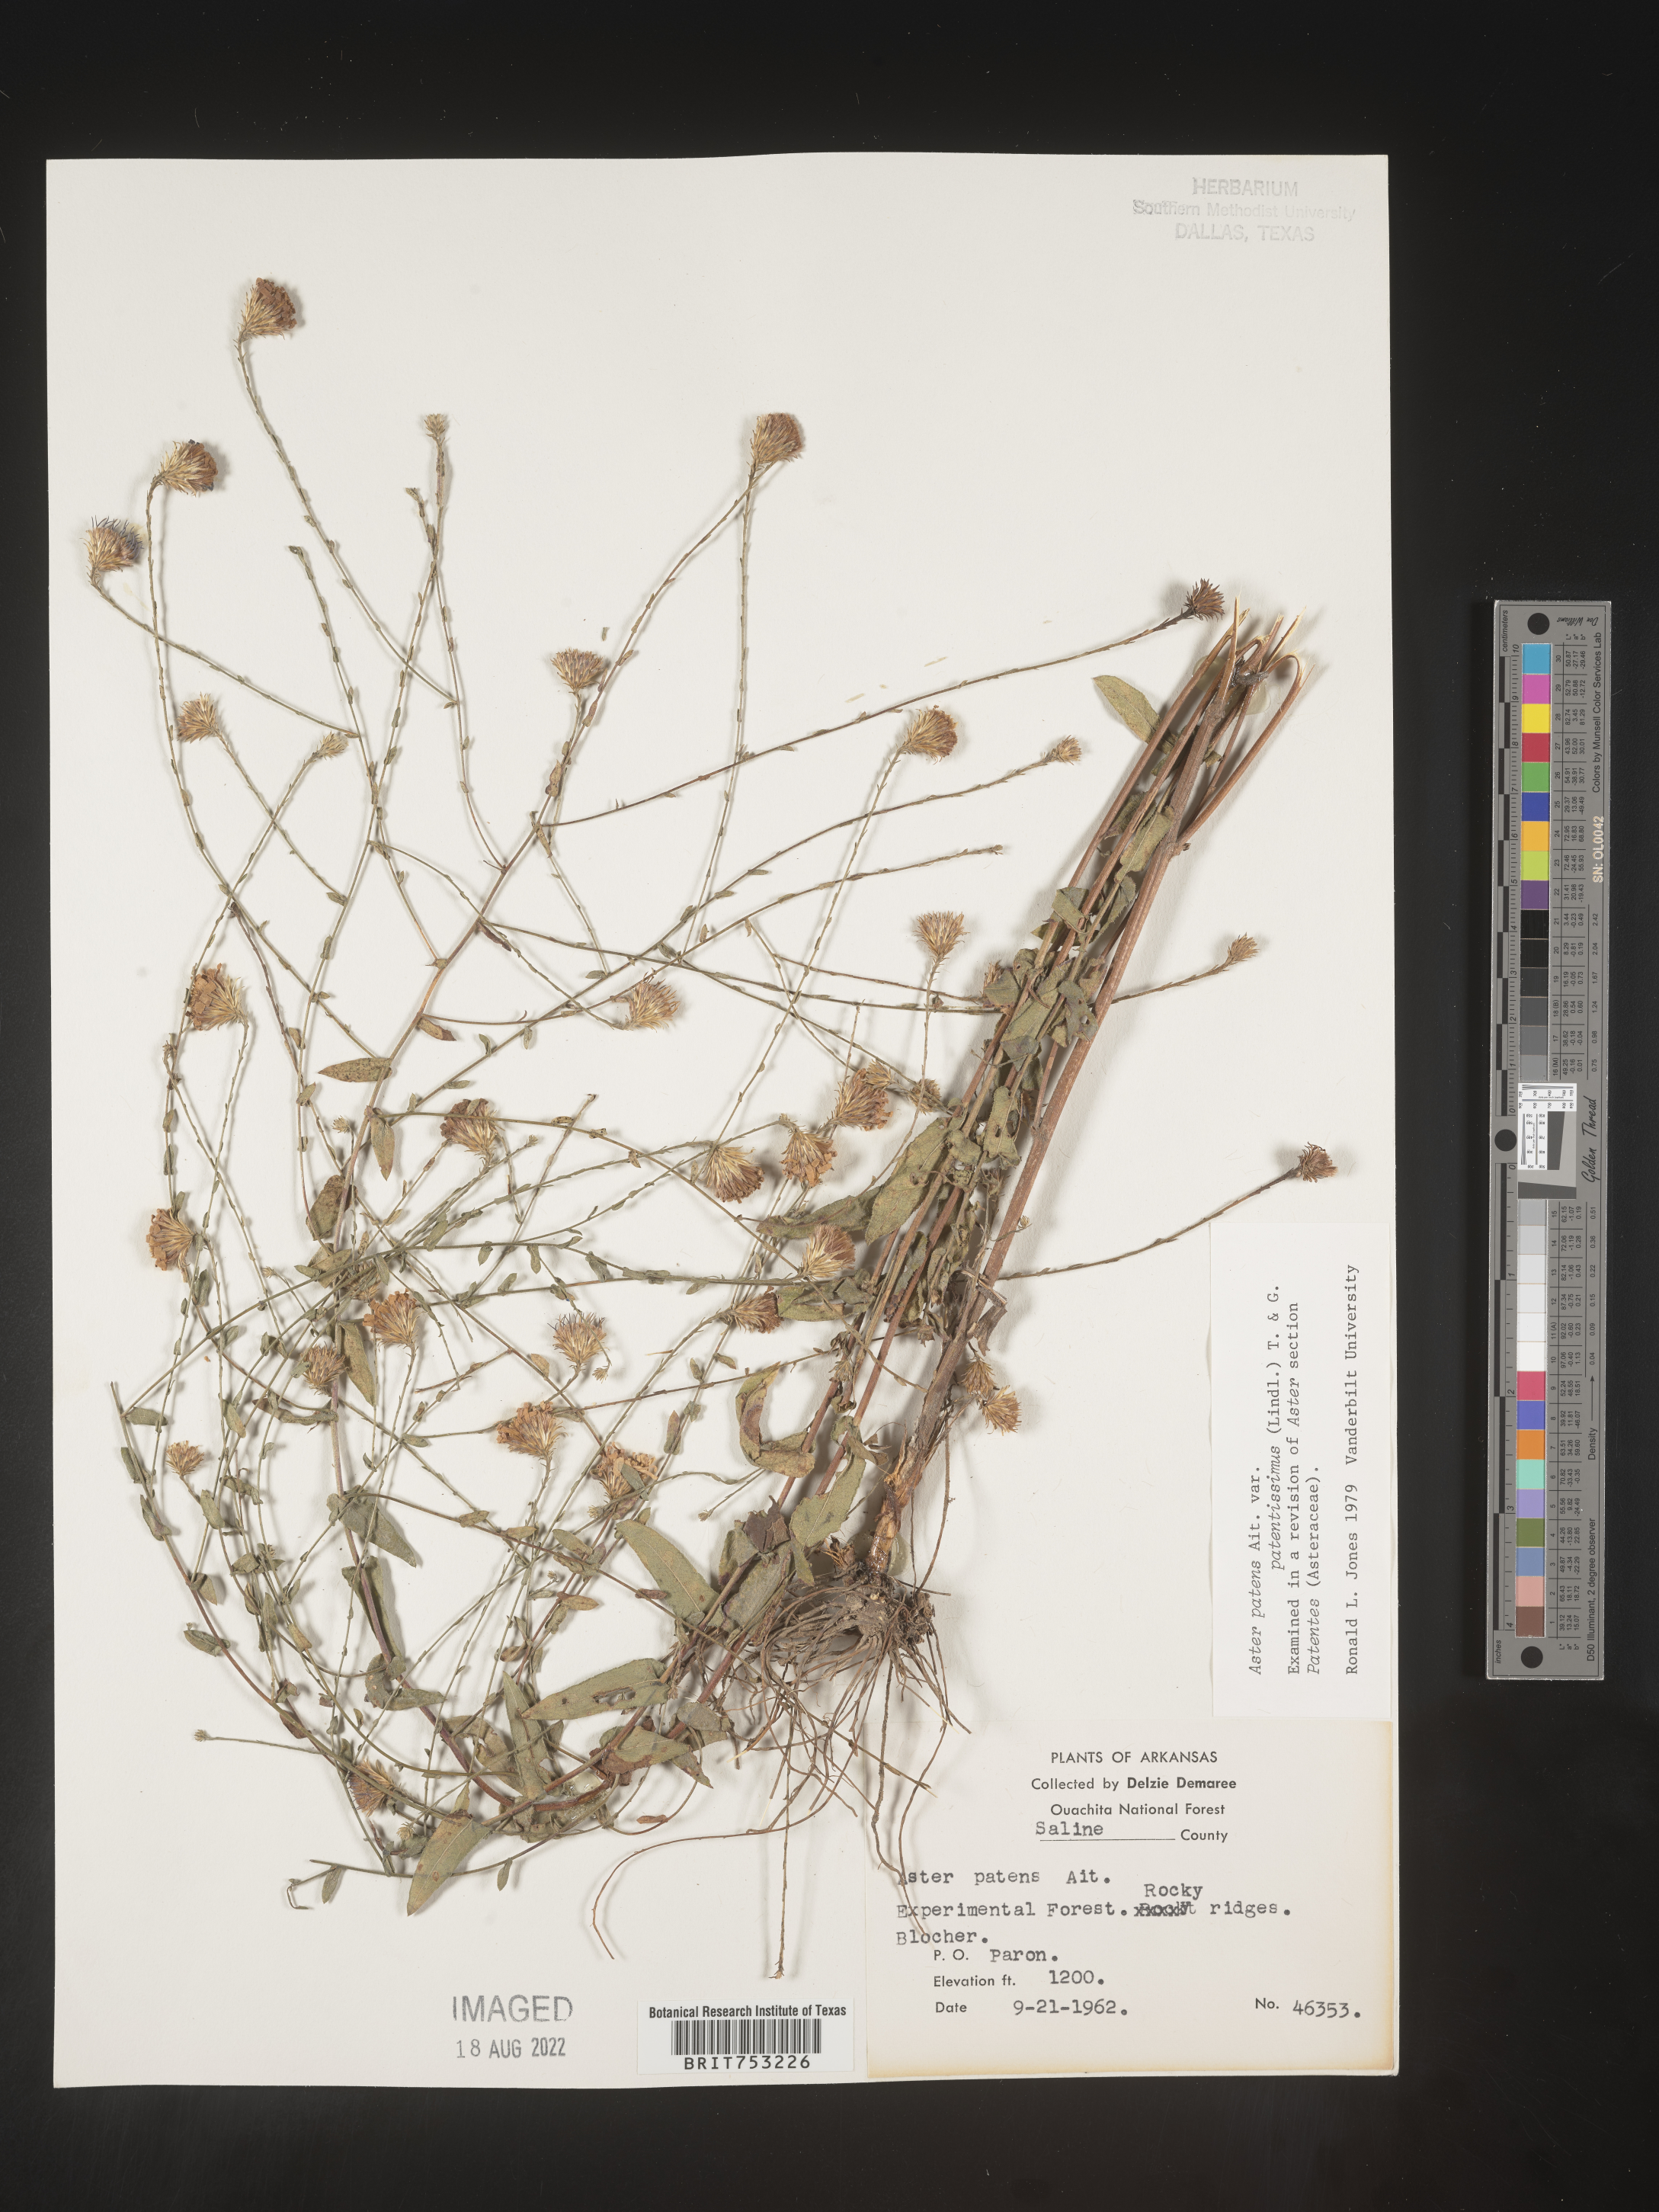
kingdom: Plantae
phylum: Tracheophyta
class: Magnoliopsida
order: Asterales
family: Asteraceae
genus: Symphyotrichum
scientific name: Symphyotrichum patens
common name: Late purple aster
